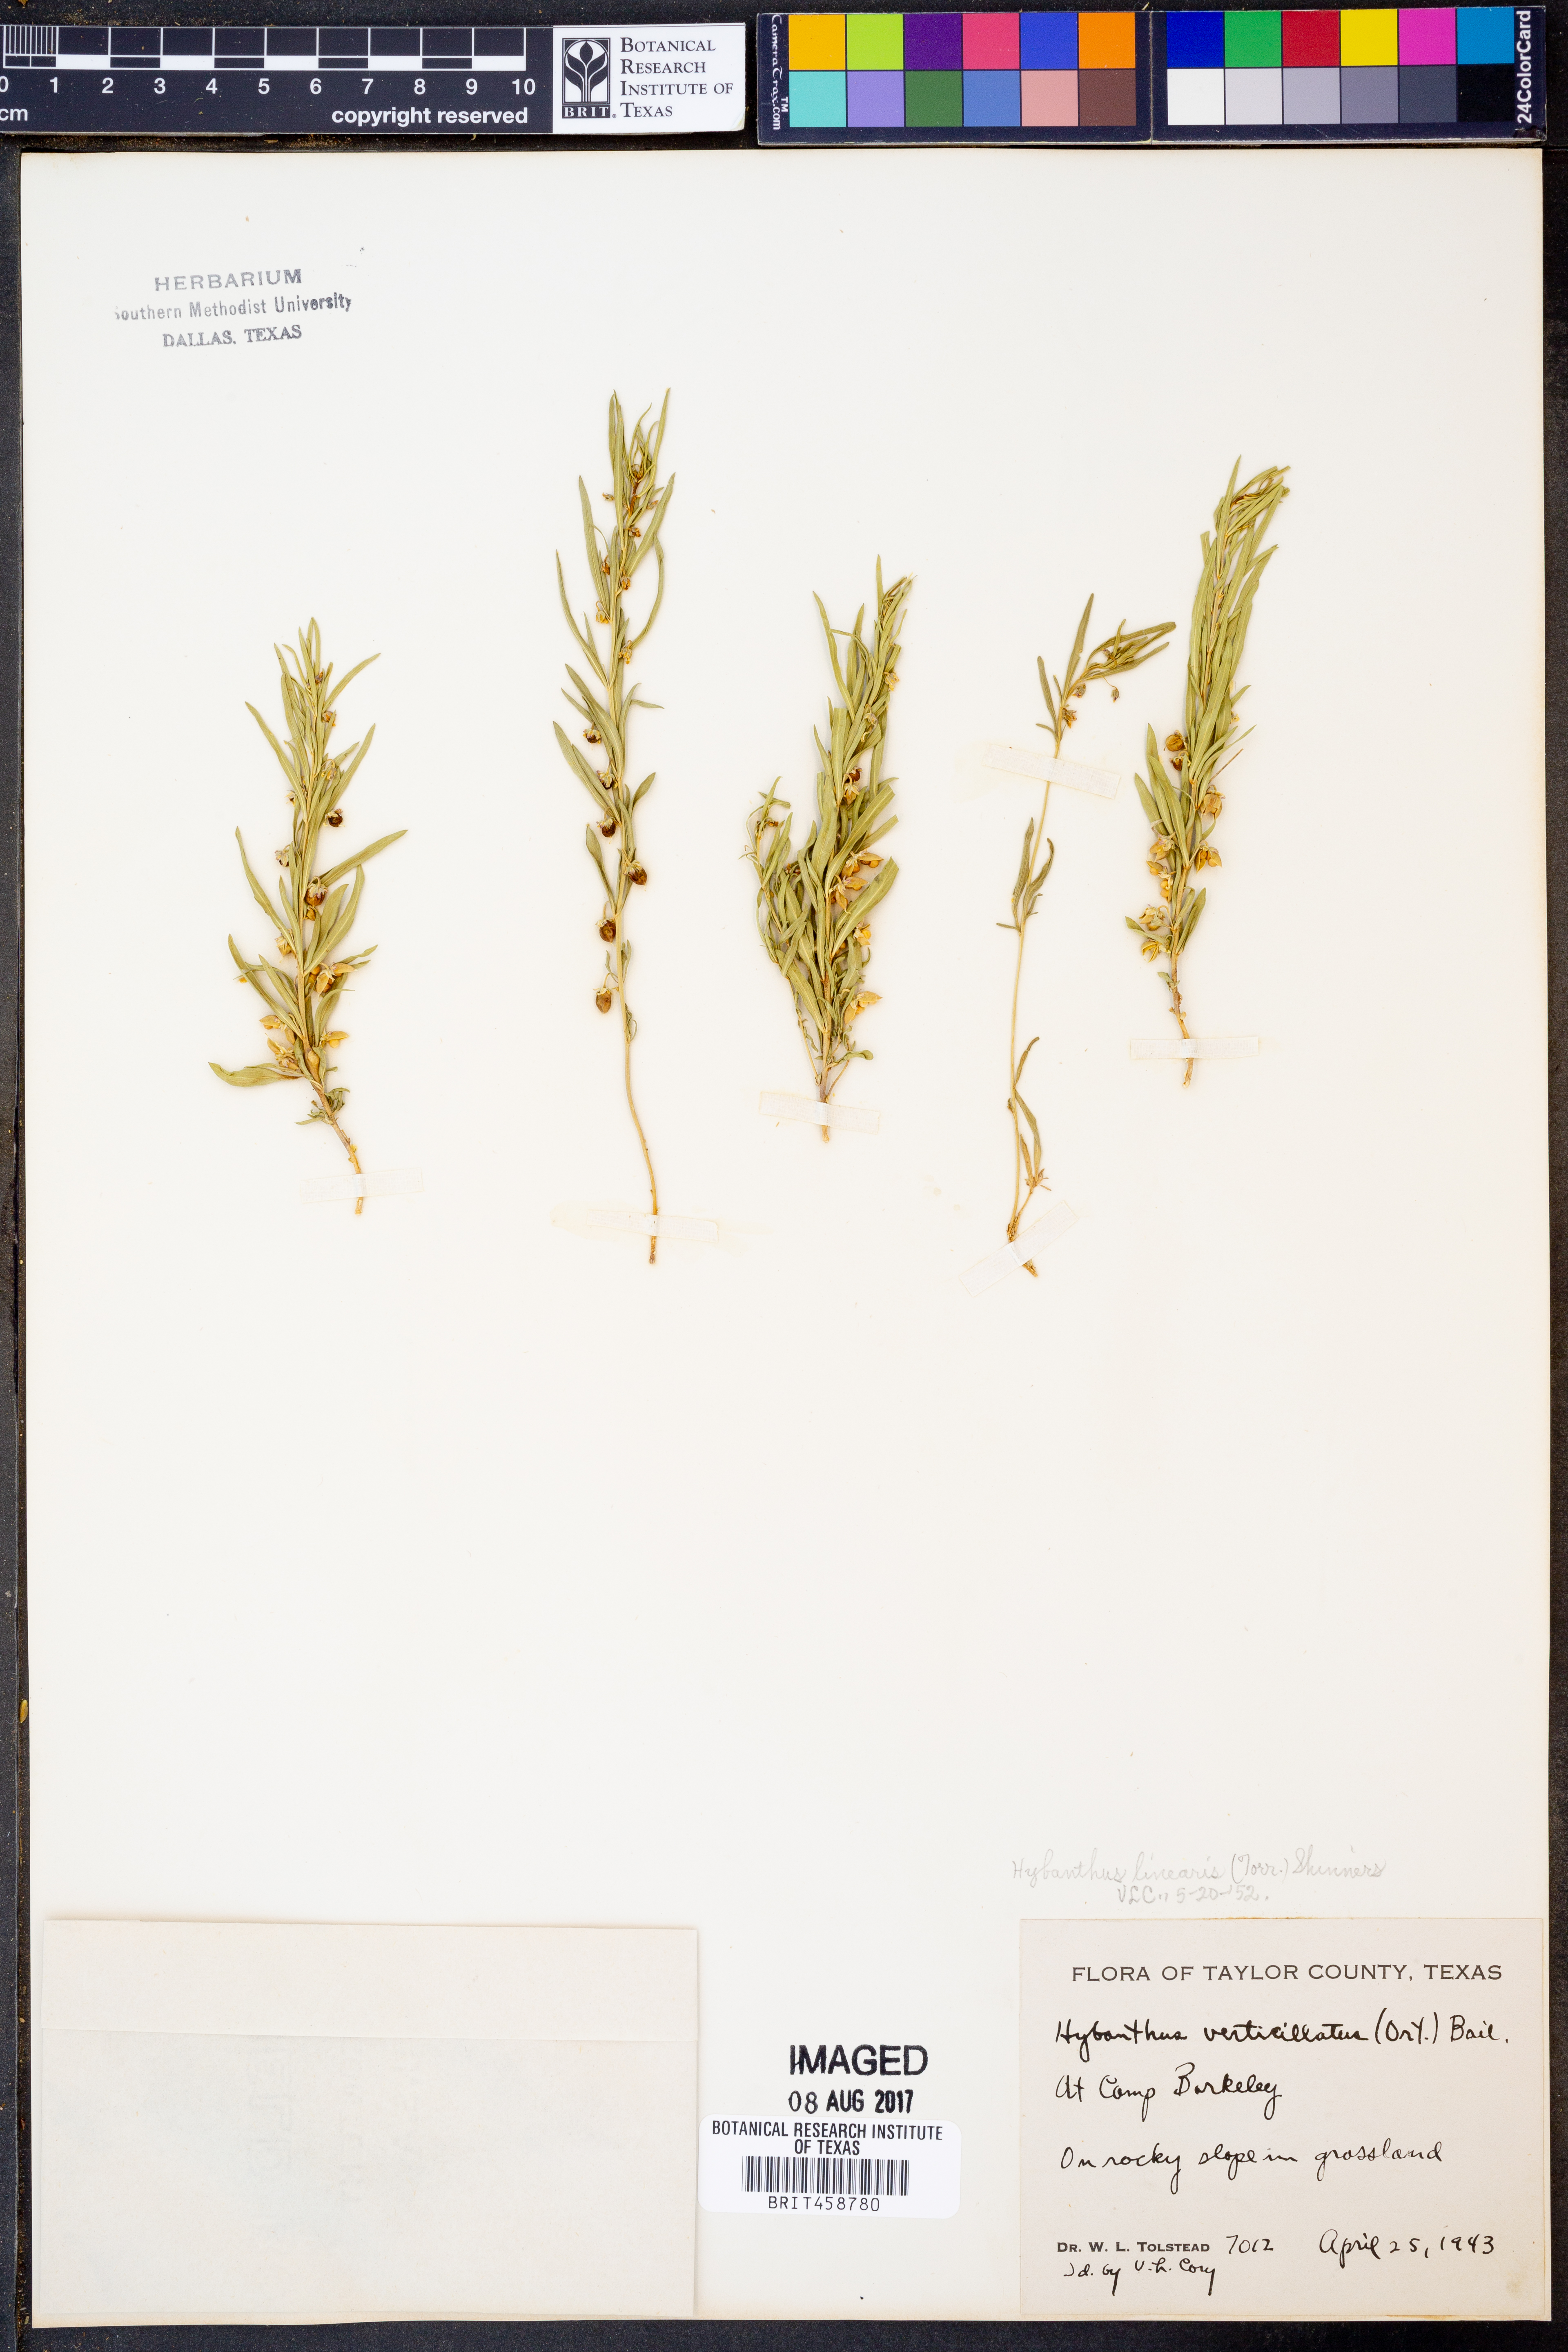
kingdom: Plantae
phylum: Tracheophyta
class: Magnoliopsida
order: Malpighiales
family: Violaceae
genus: Pombalia
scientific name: Pombalia verticillata
